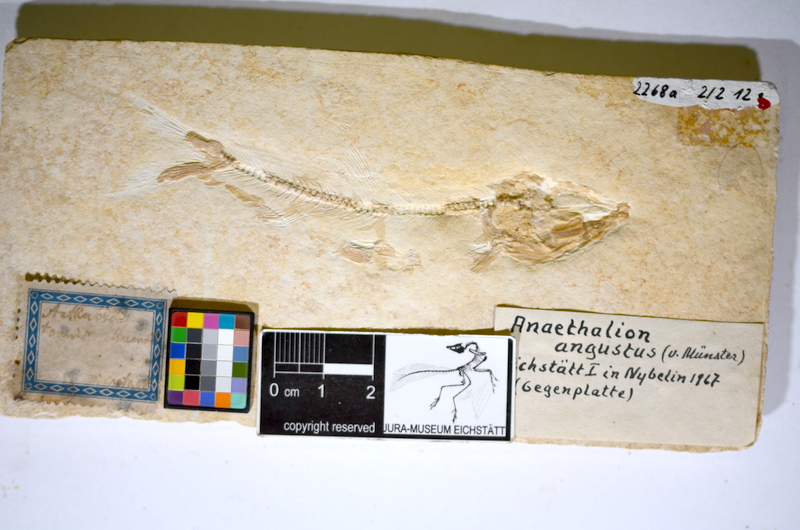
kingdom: Animalia
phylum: Chordata
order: Elopiformes
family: Anaethalionidae
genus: Anaethalion
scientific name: Anaethalion angustus
